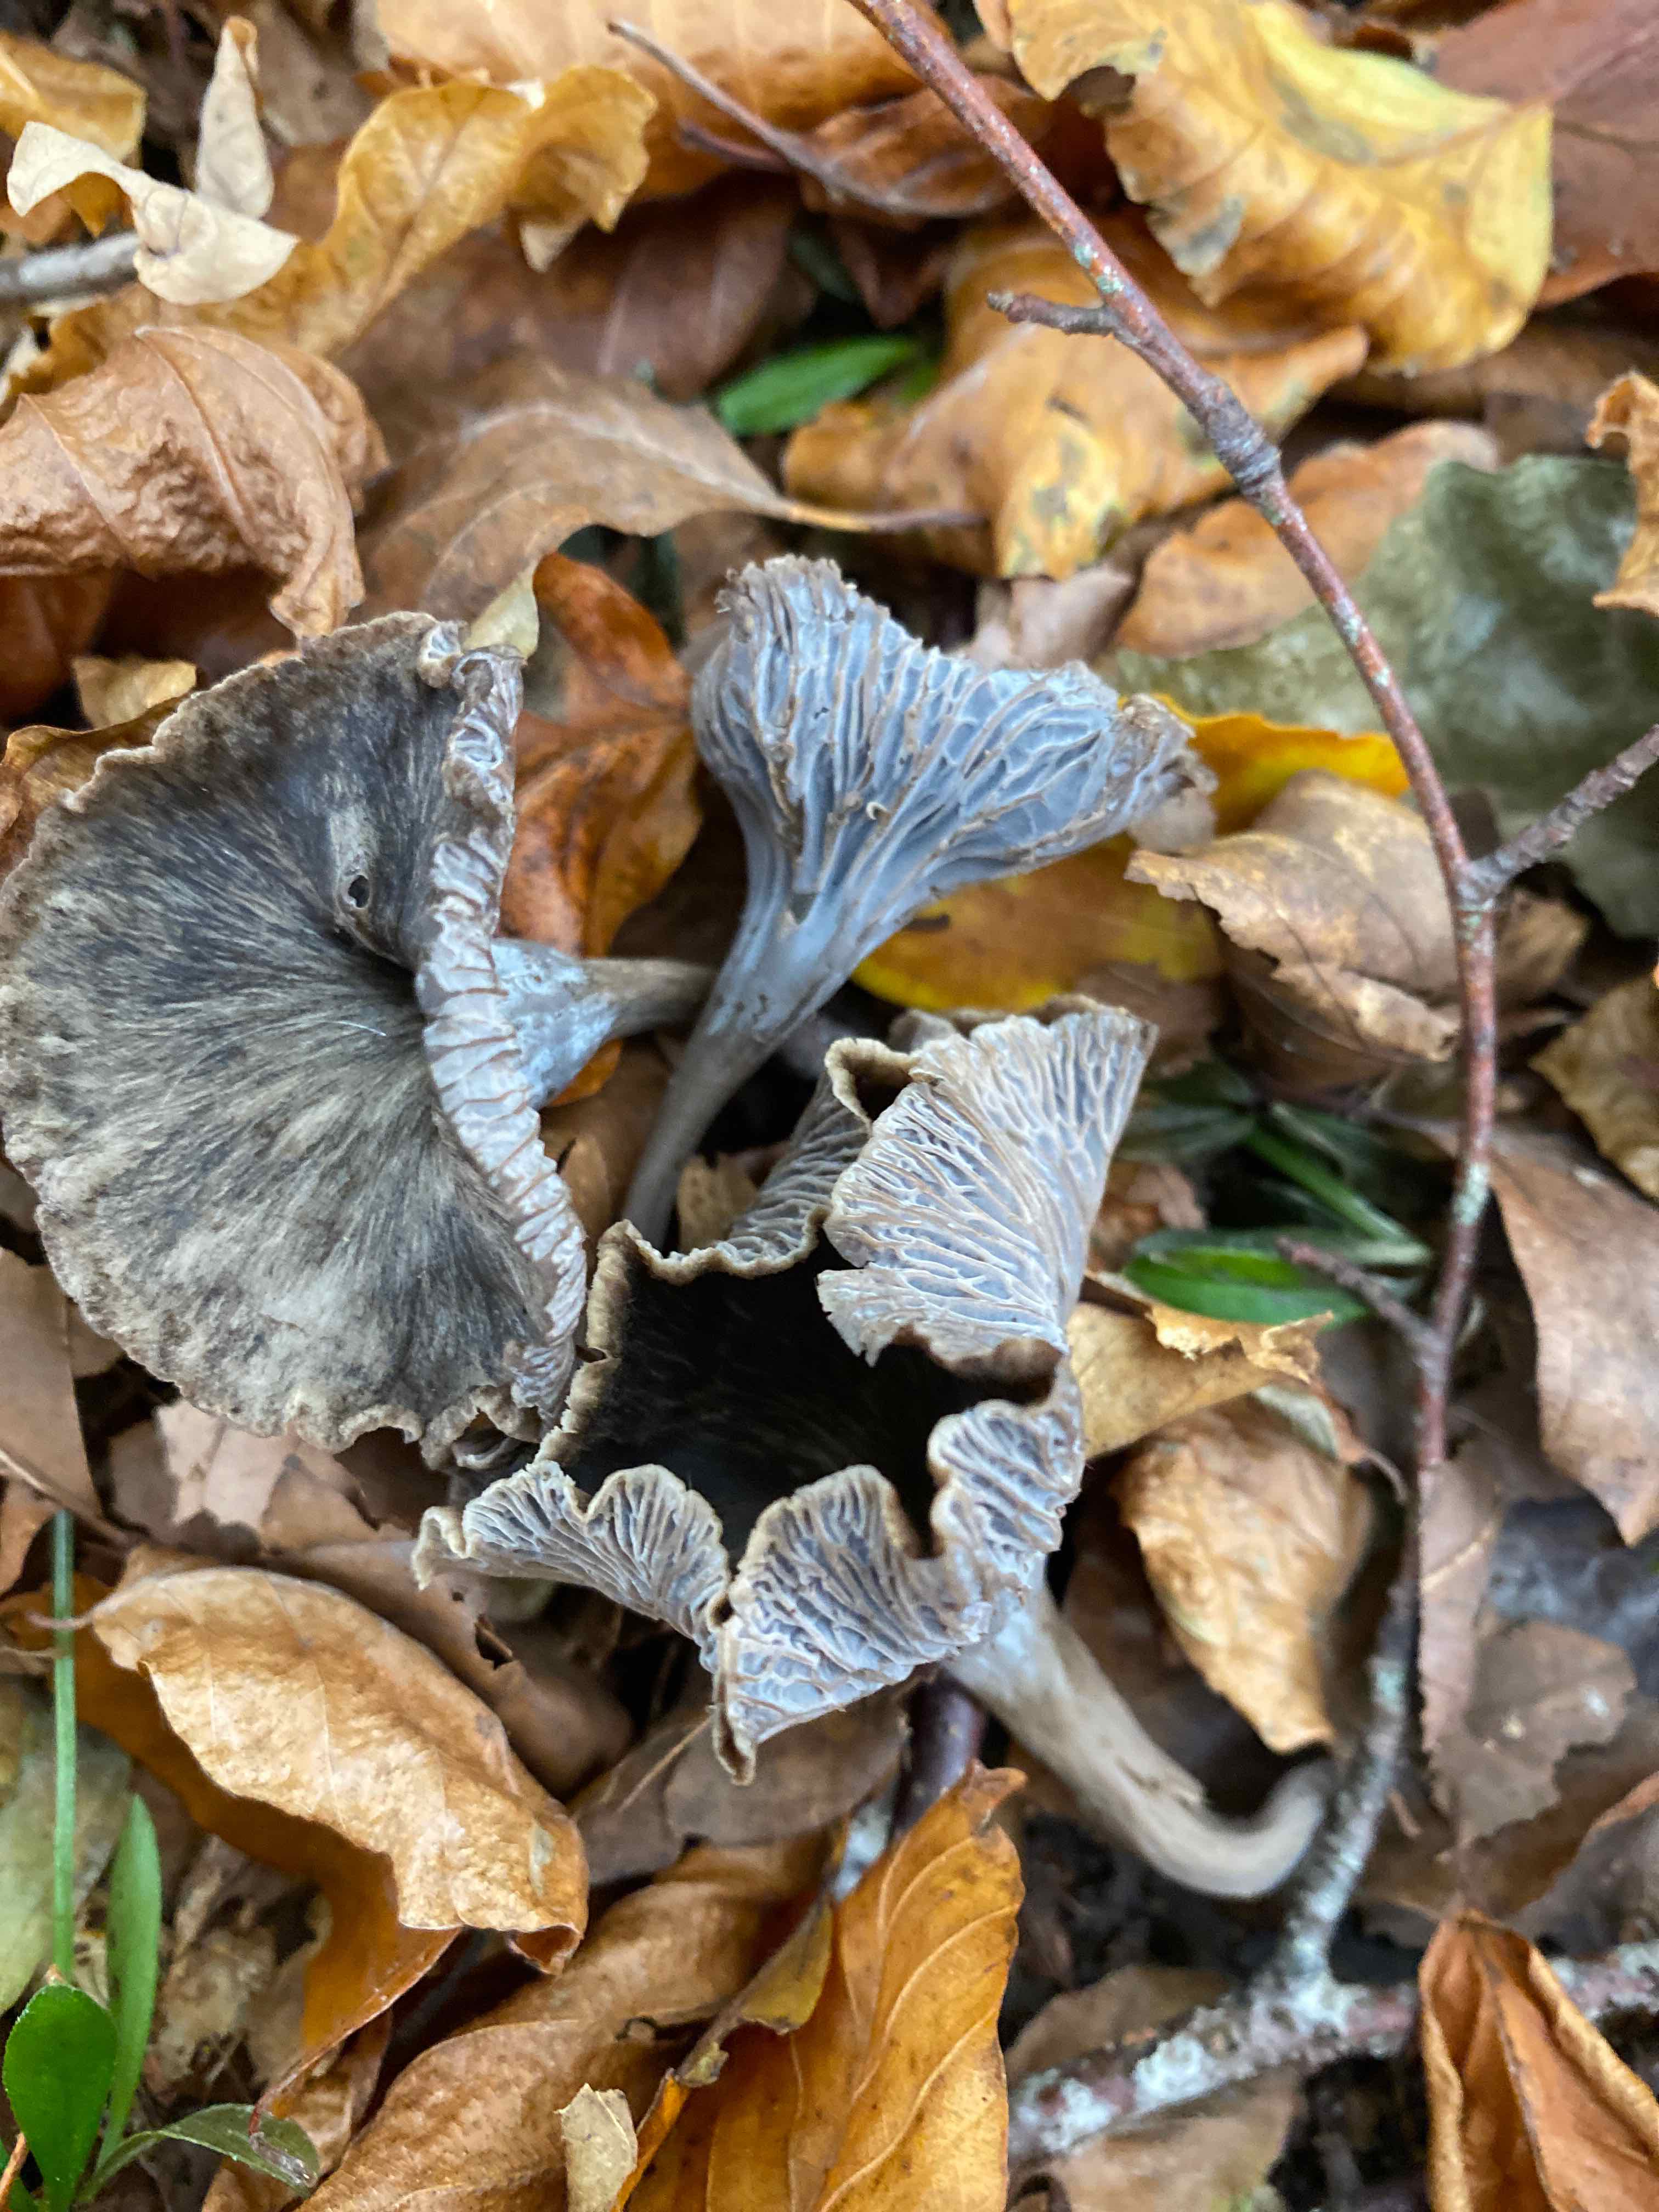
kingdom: Fungi
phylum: Basidiomycota
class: Agaricomycetes
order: Cantharellales
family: Hydnaceae
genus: Cantharellus
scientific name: Cantharellus cinereus
